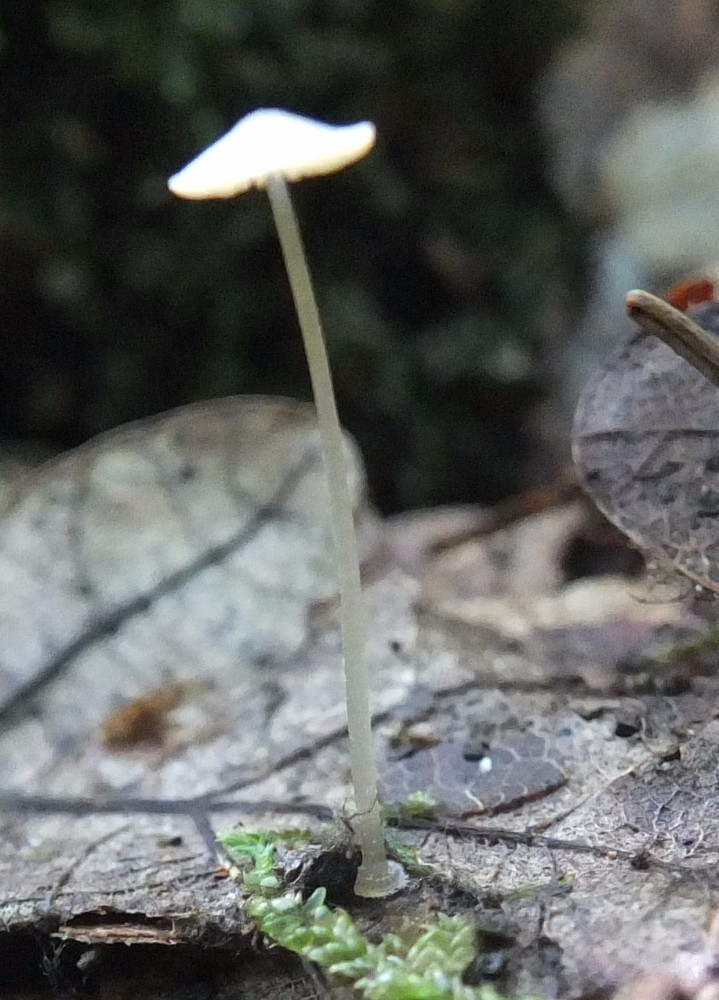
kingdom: Fungi
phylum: Basidiomycota
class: Agaricomycetes
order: Agaricales
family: Mycenaceae
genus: Mycena
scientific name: Mycena stylobates
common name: fureskivet huesvamp
